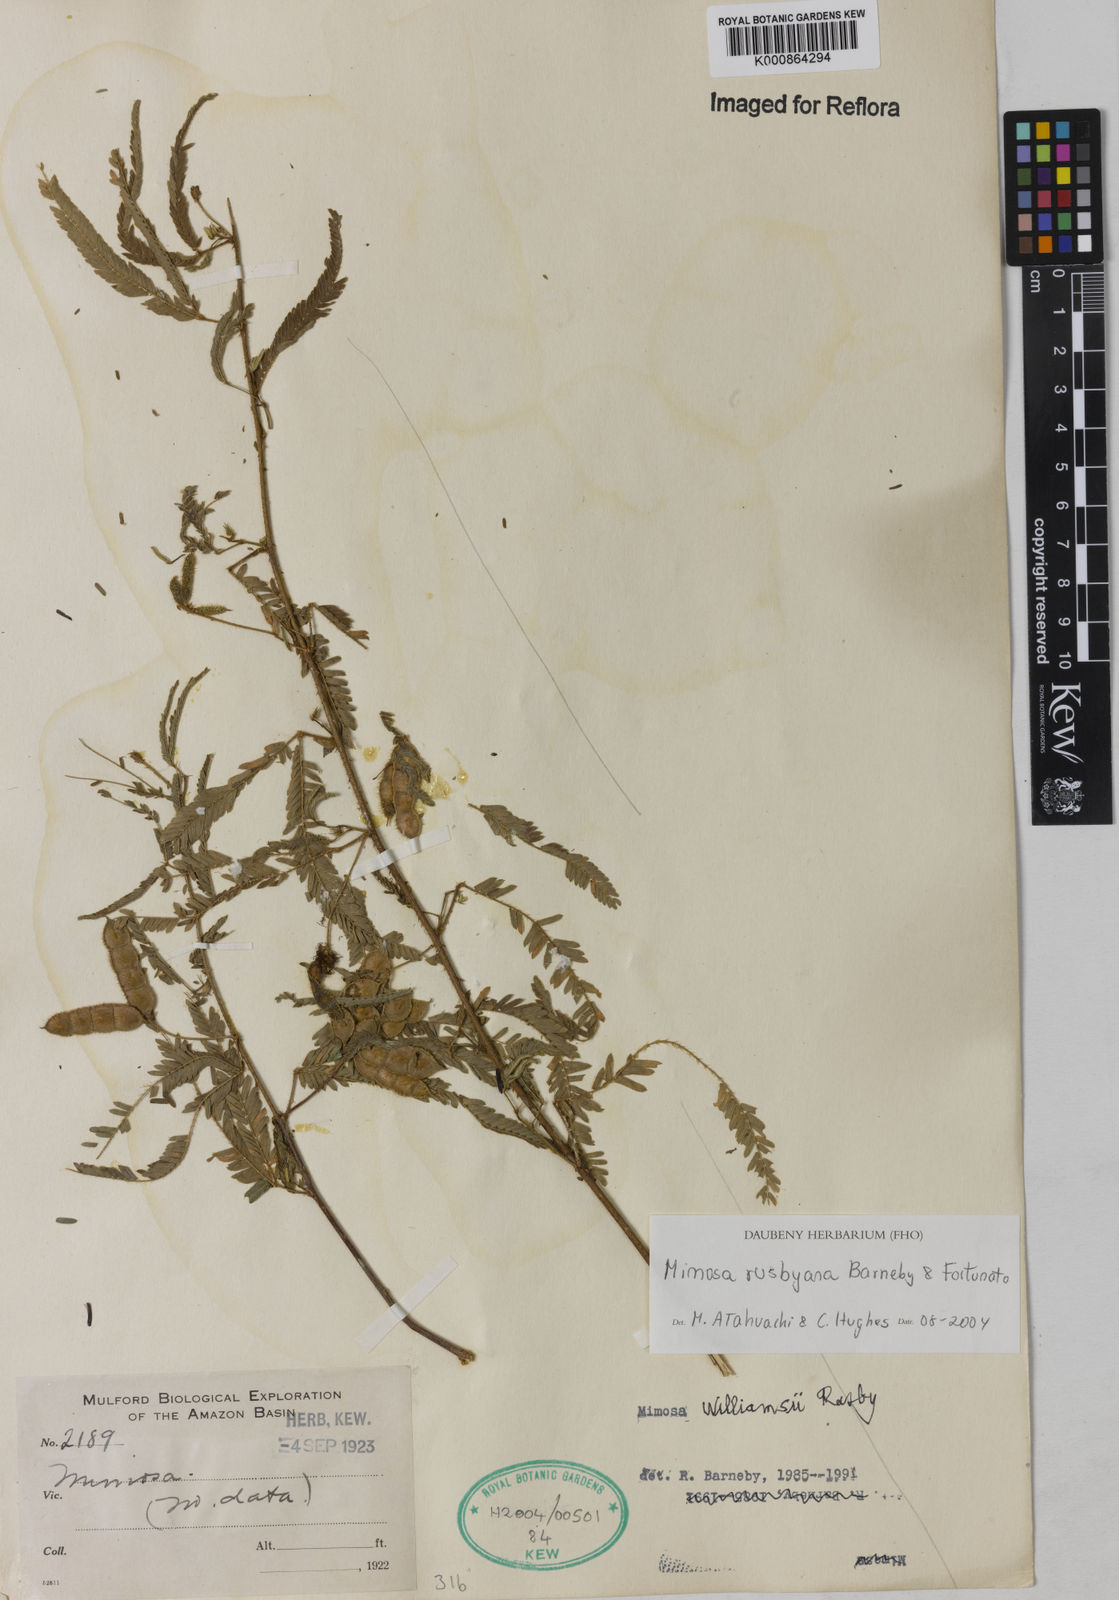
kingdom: Plantae
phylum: Tracheophyta
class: Magnoliopsida
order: Fabales
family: Fabaceae
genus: Mimosa
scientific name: Mimosa rusbyana
